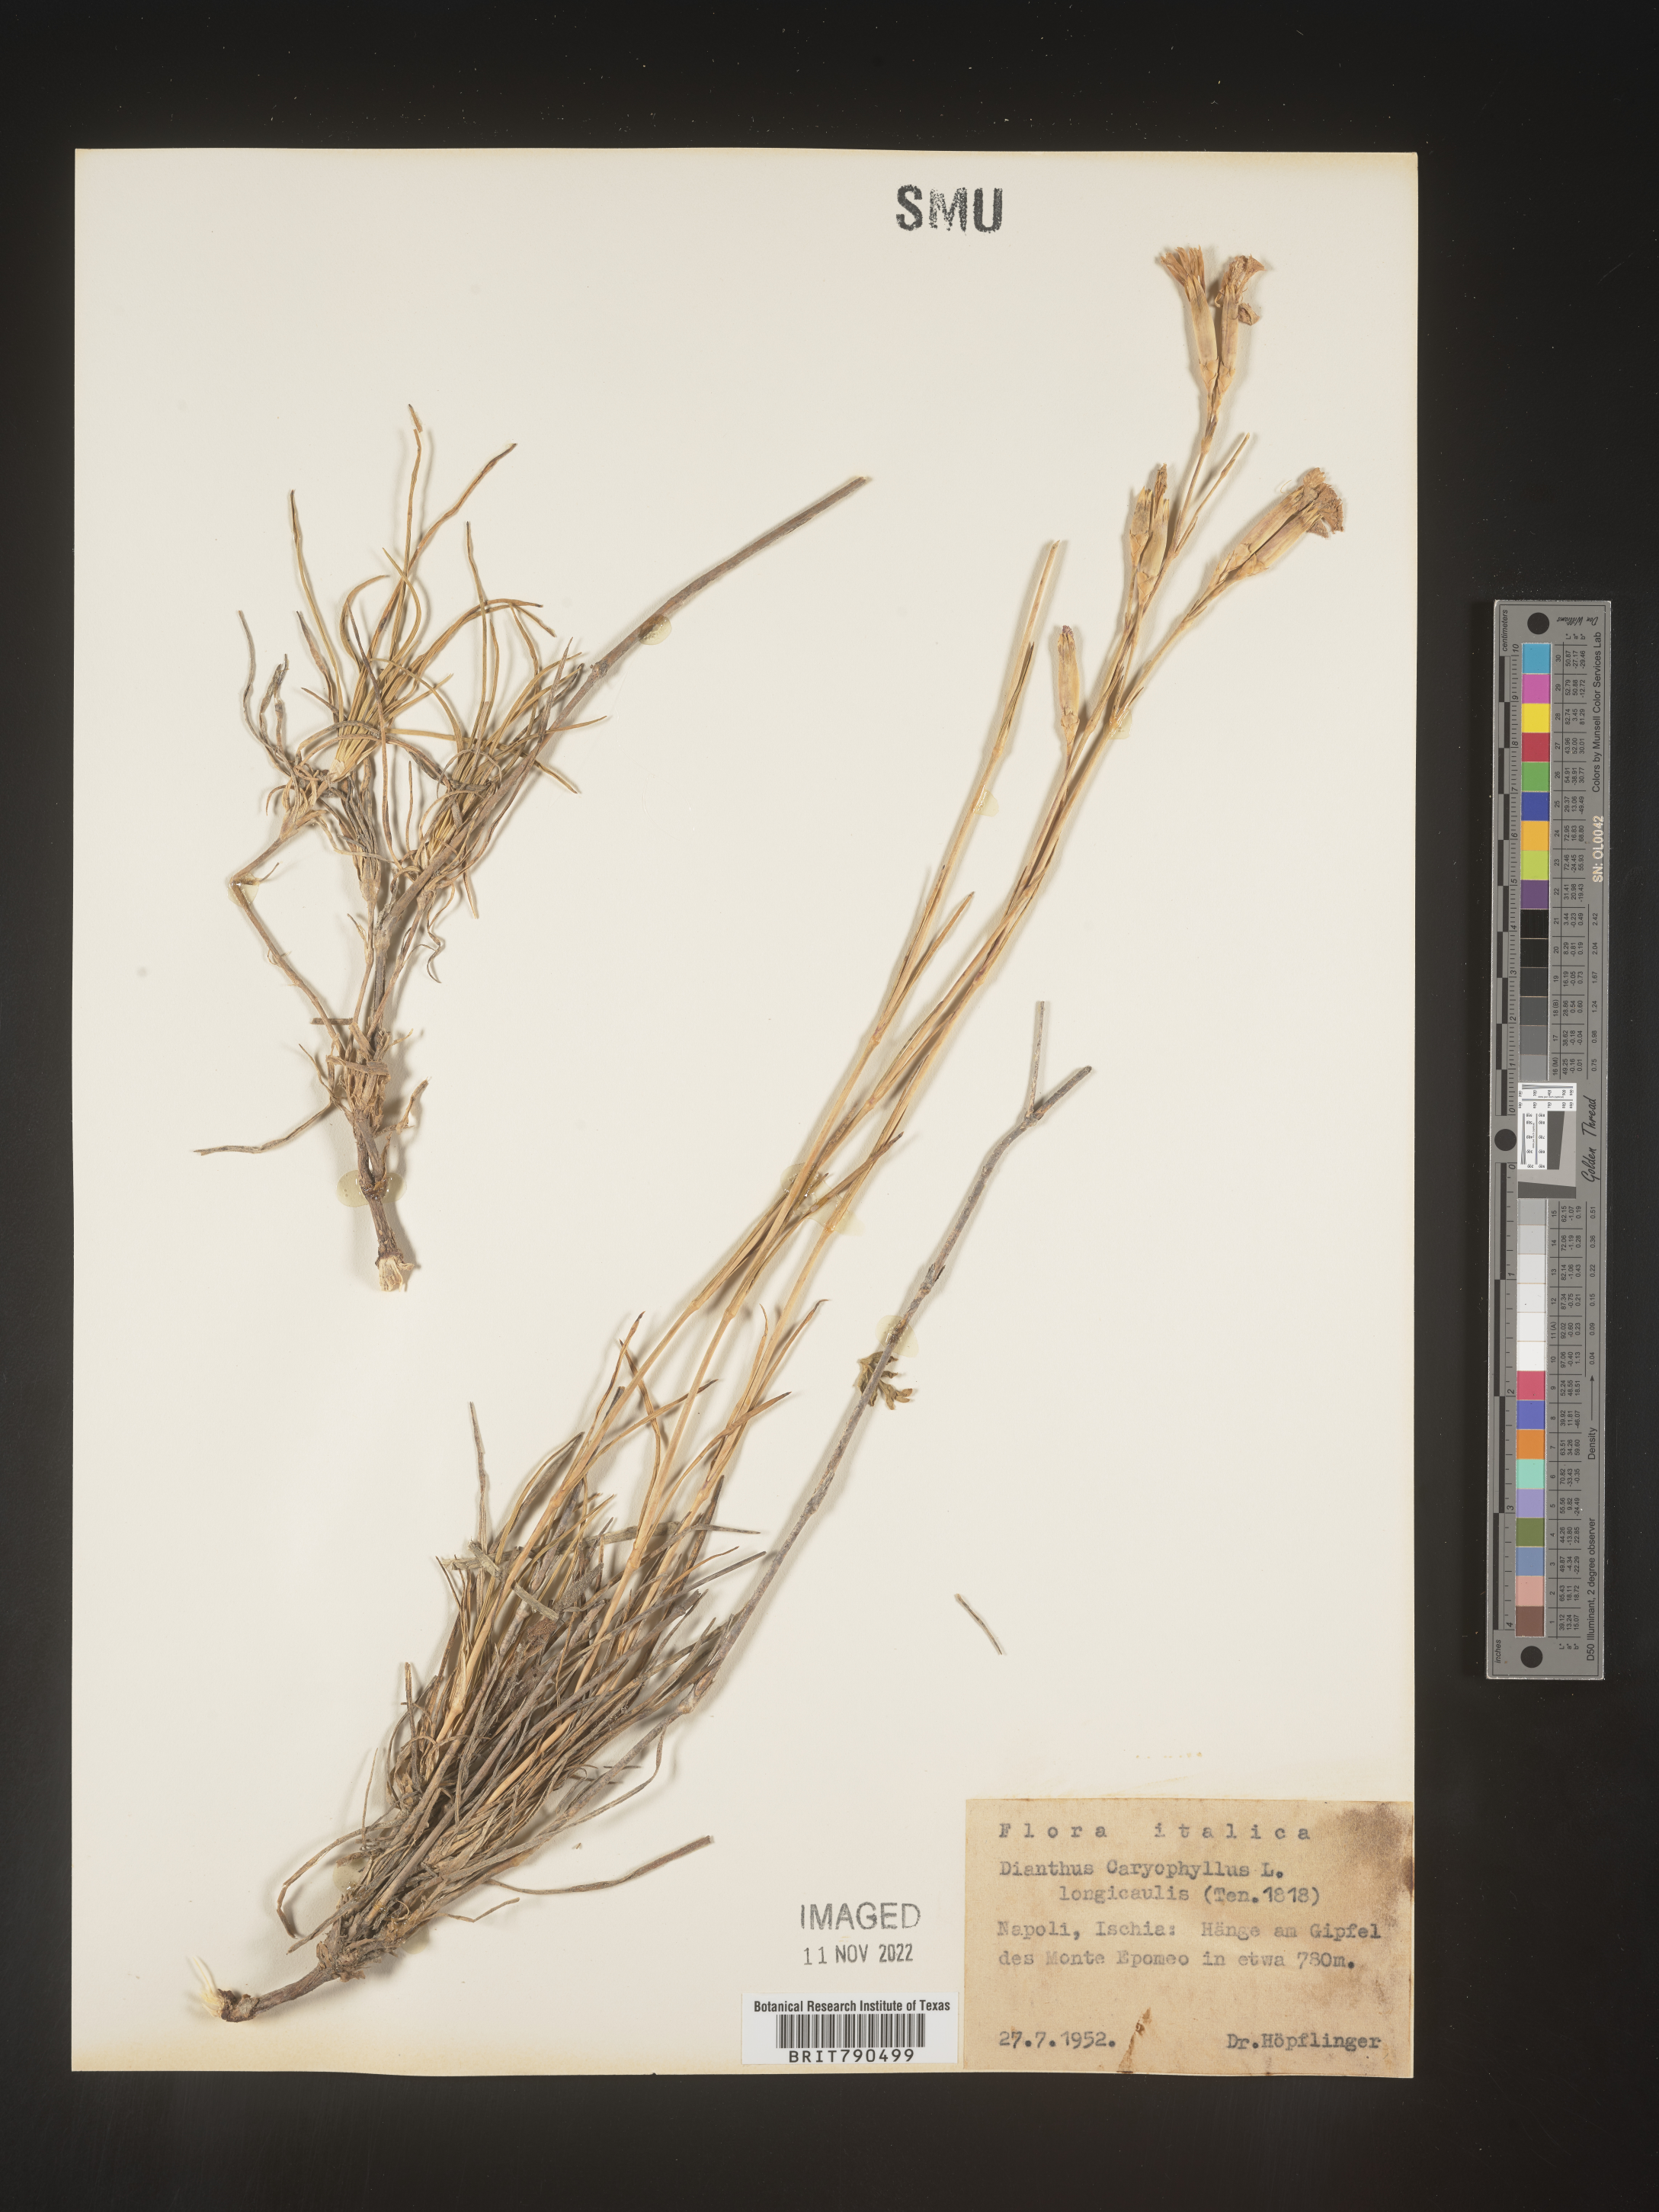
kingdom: Plantae
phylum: Tracheophyta
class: Magnoliopsida
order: Caryophyllales
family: Caryophyllaceae
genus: Dianthus
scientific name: Dianthus
